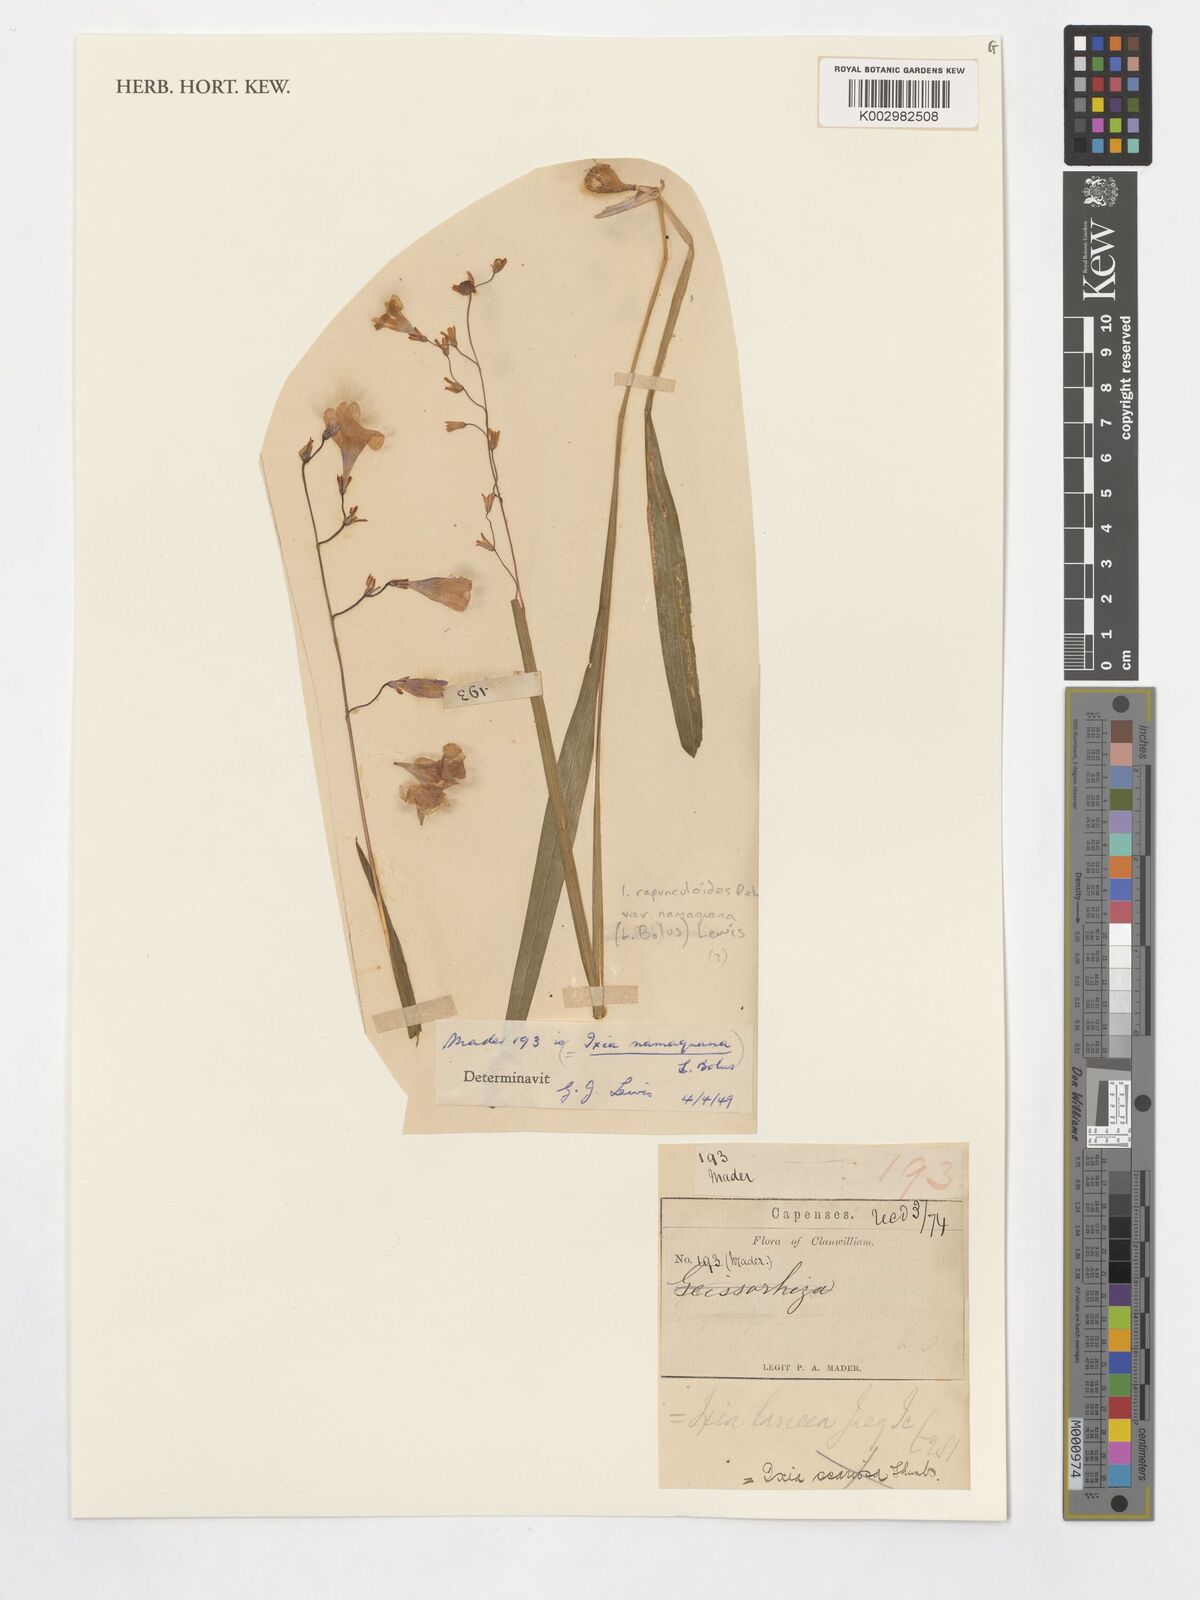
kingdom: Plantae
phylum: Tracheophyta
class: Liliopsida
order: Asparagales
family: Iridaceae
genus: Ixia
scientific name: Ixia rapunculoides
